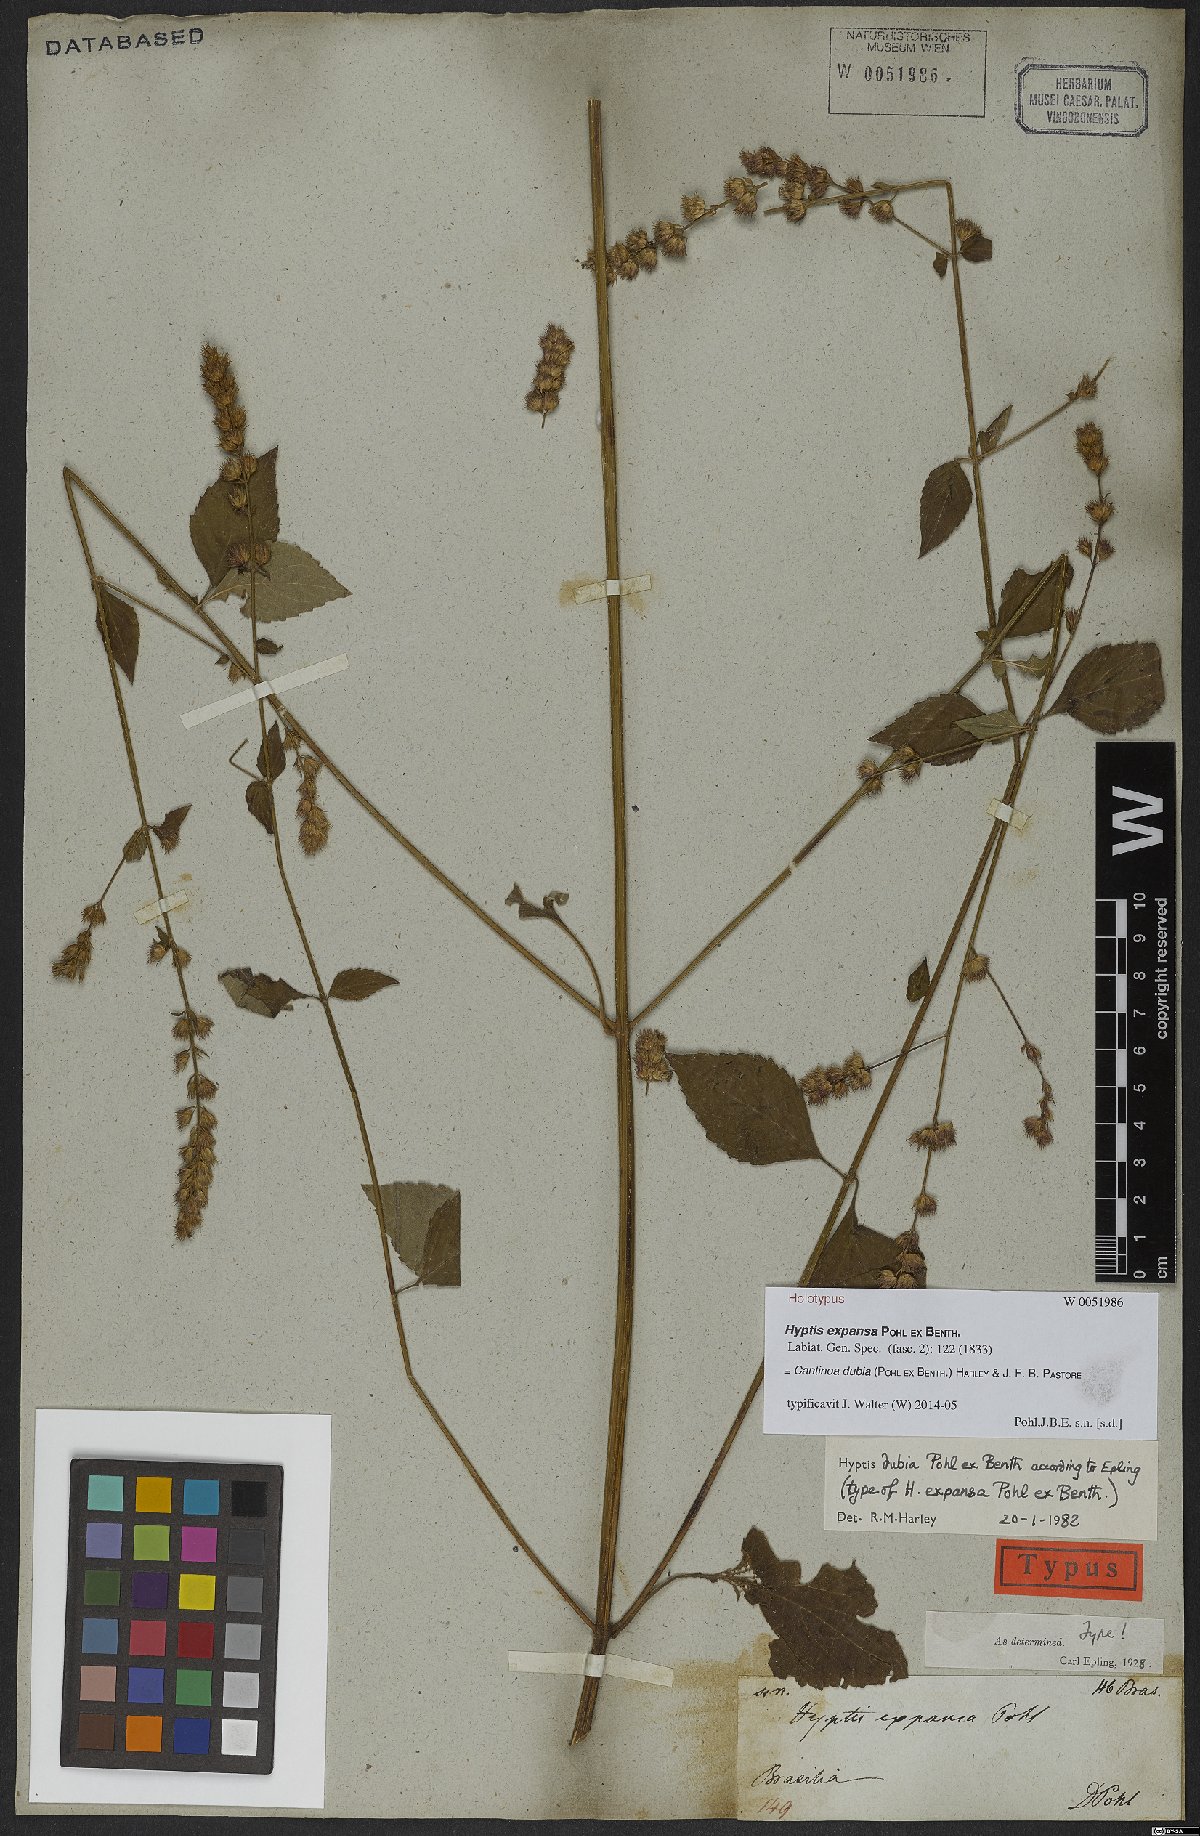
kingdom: Plantae
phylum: Tracheophyta
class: Magnoliopsida
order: Lamiales
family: Lamiaceae
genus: Cantinoa
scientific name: Cantinoa dubia
